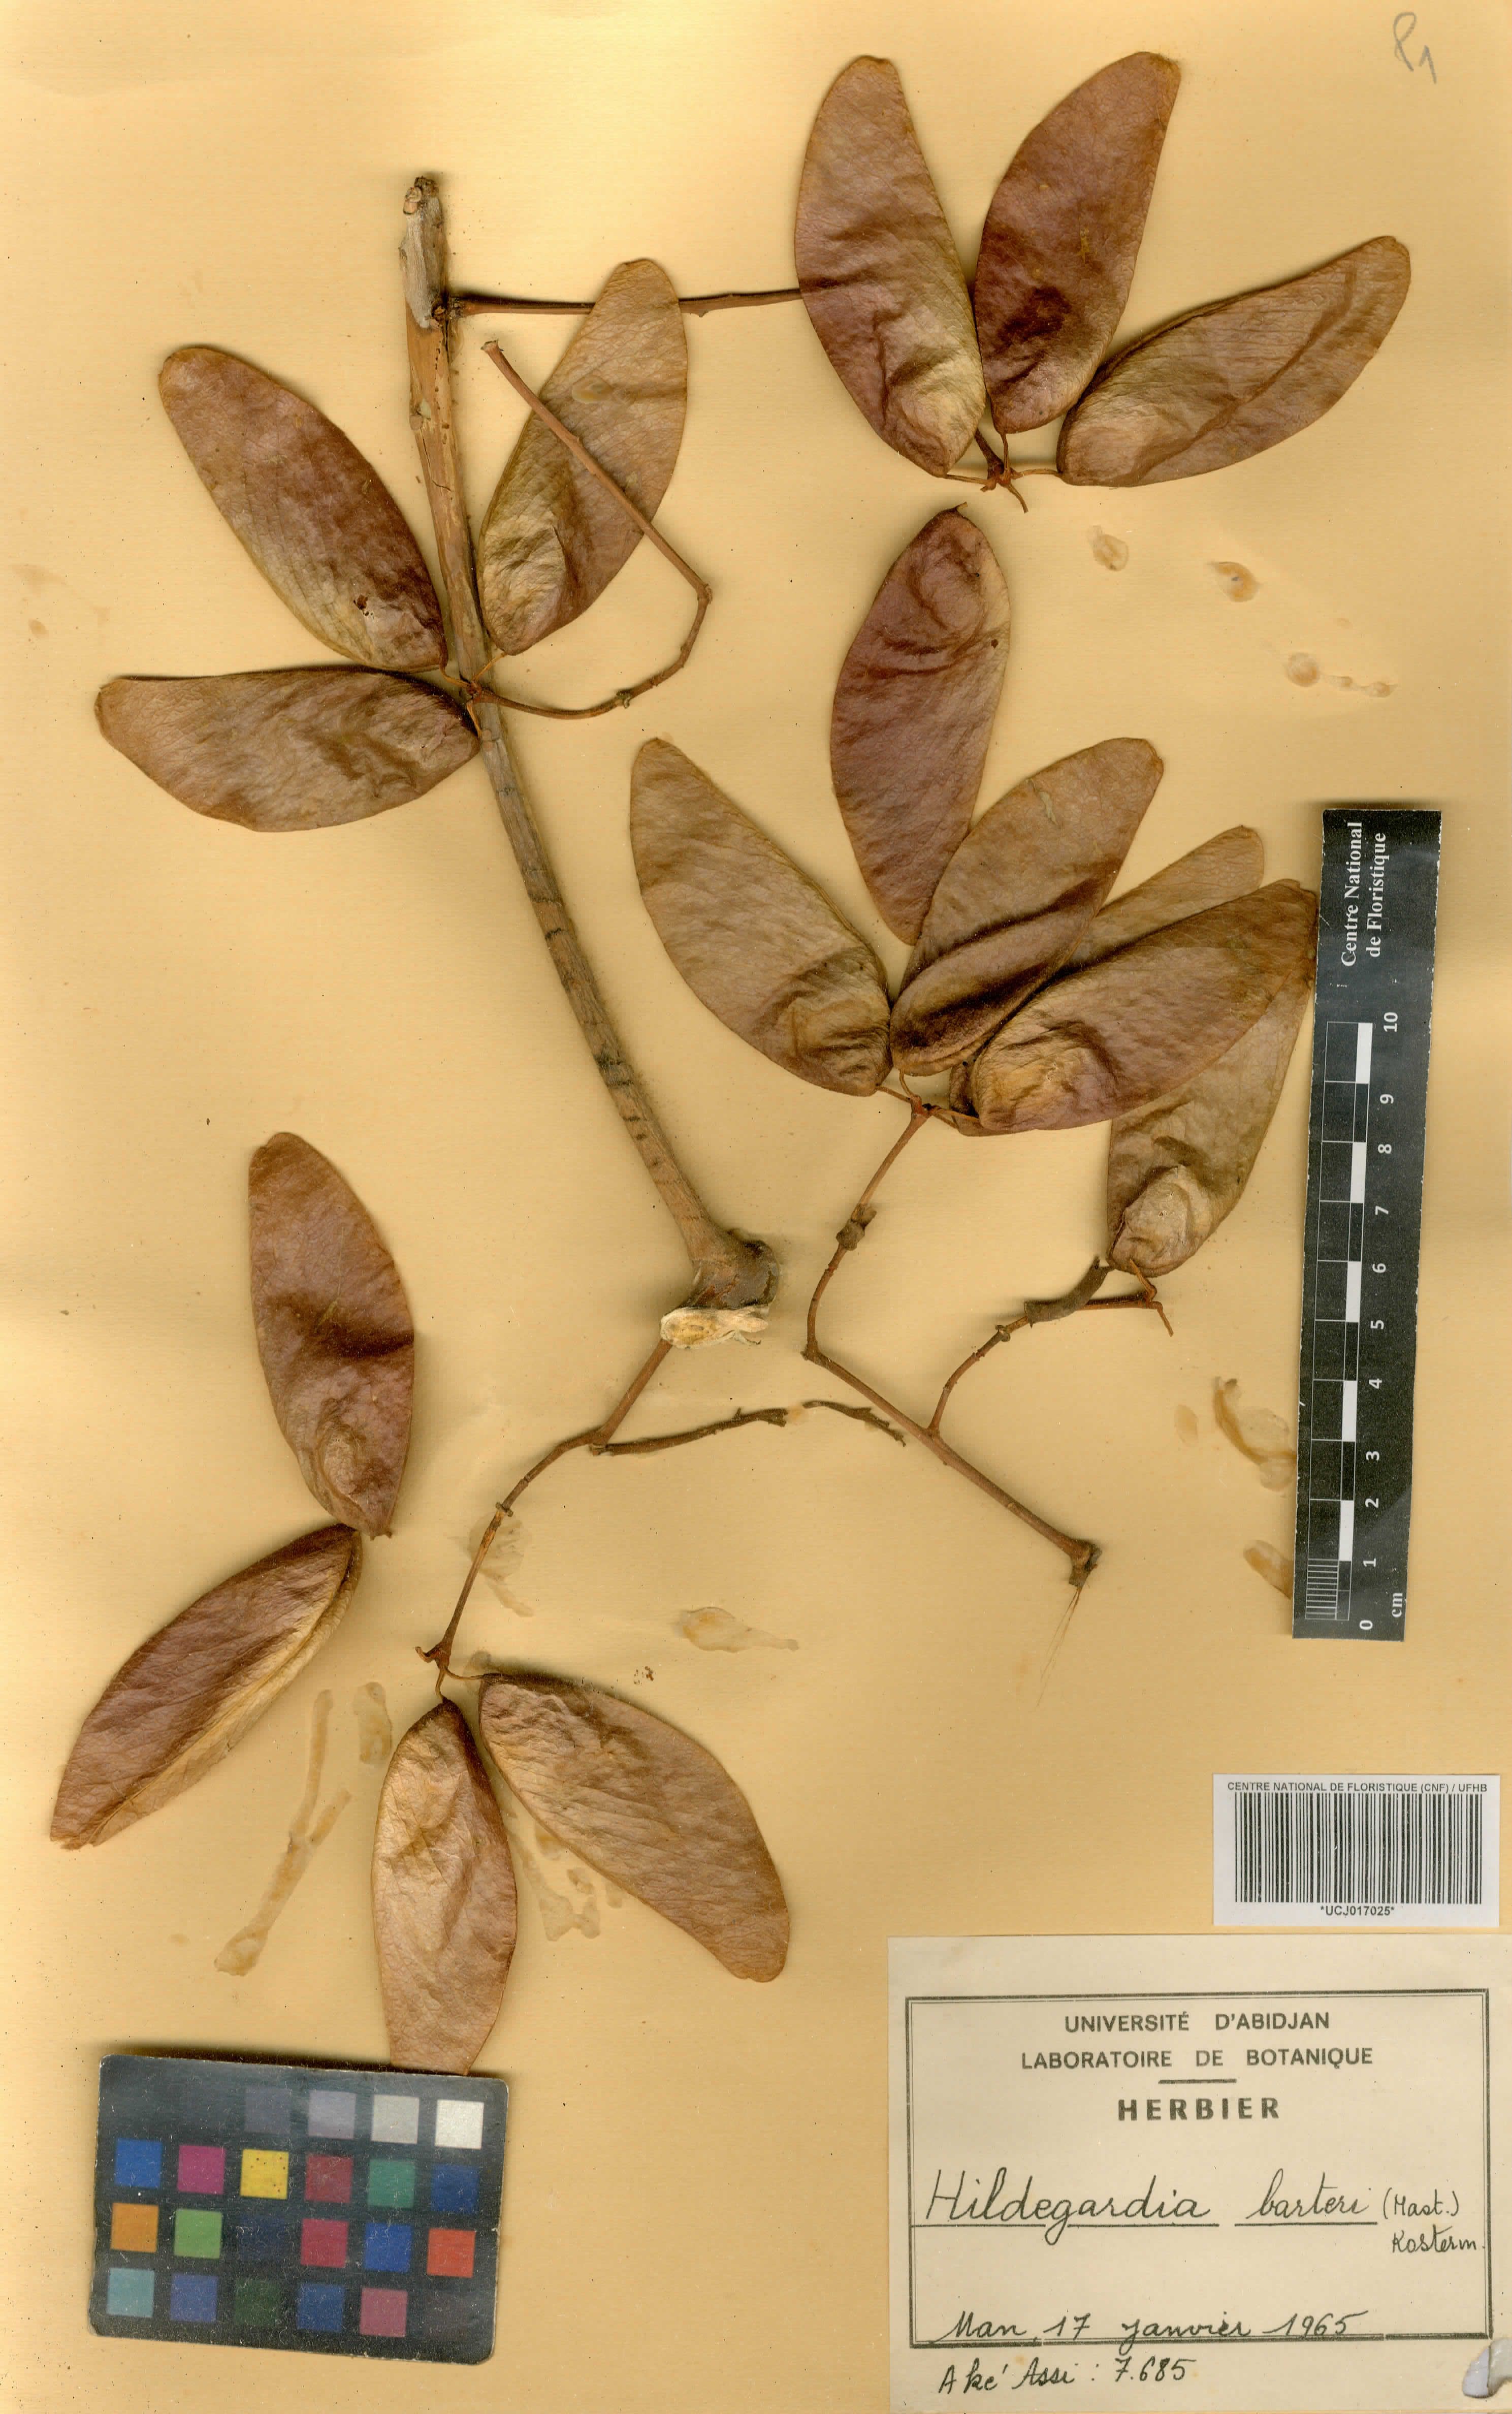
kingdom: Plantae
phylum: Tracheophyta
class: Magnoliopsida
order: Malvales
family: Malvaceae
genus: Hildegardia
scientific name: Hildegardia barteri
